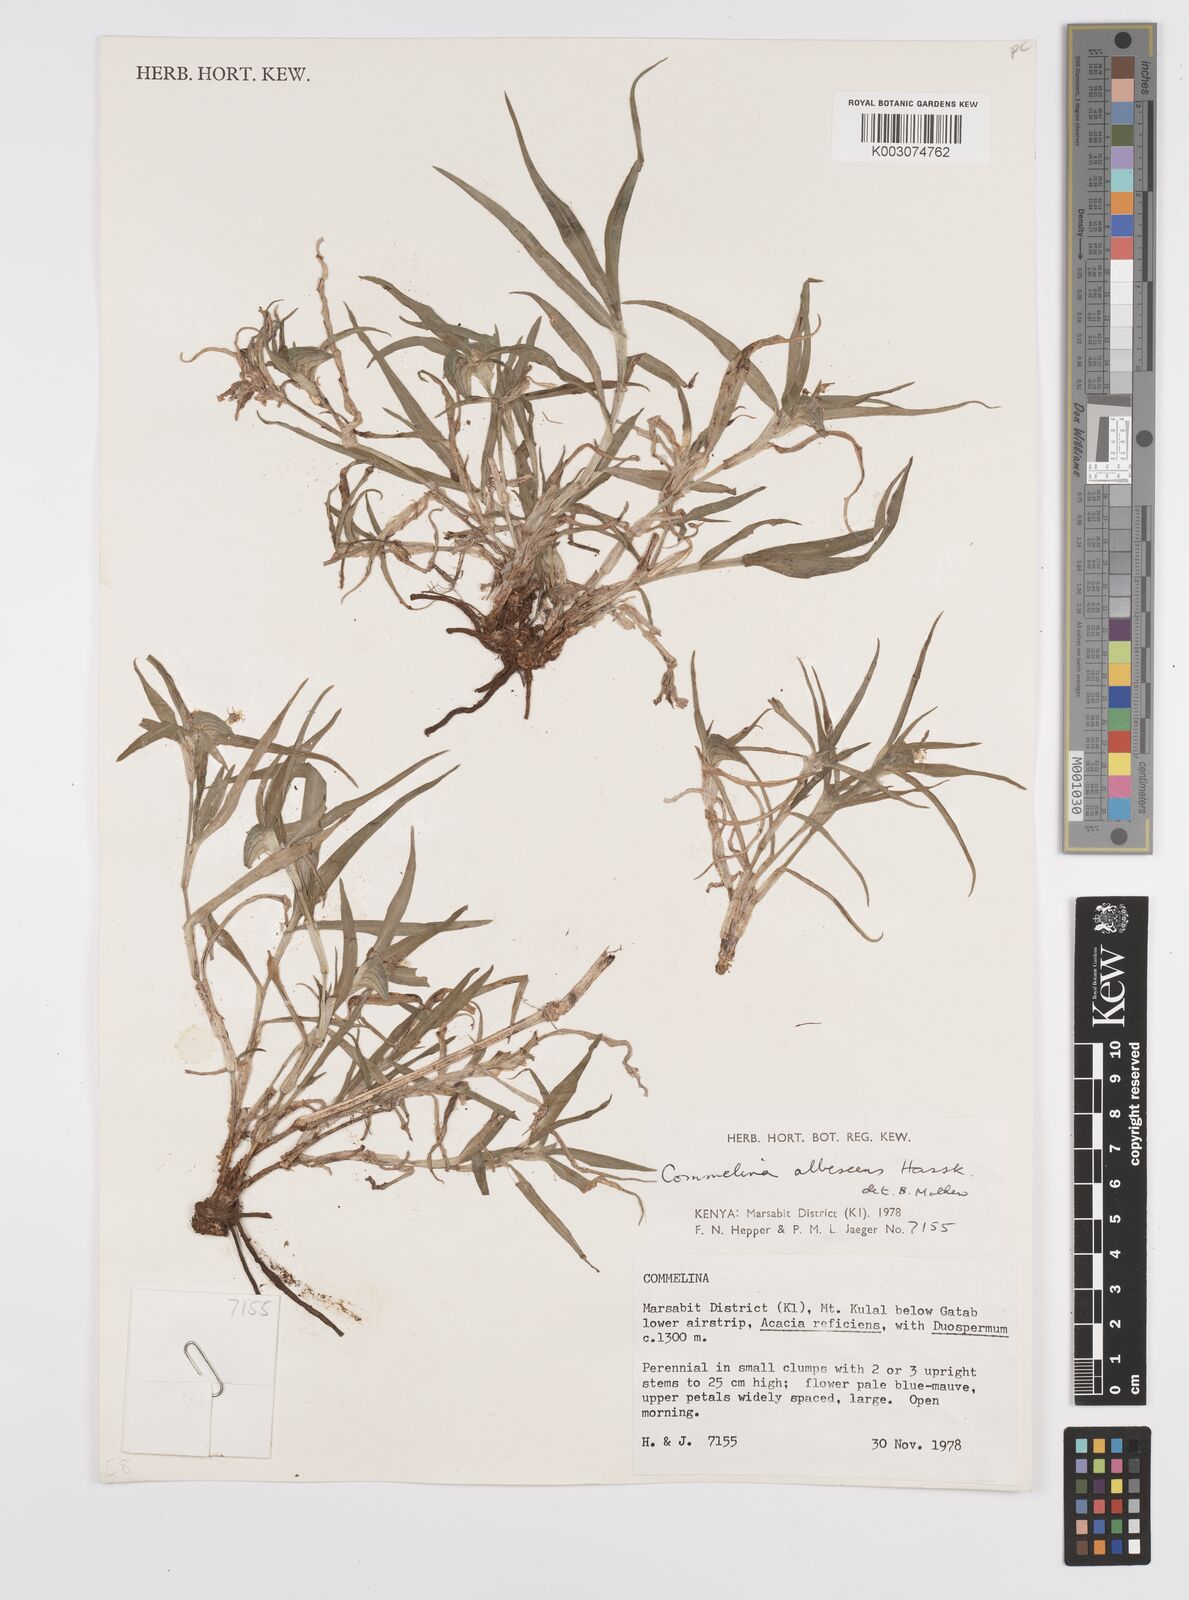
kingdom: Plantae
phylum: Tracheophyta
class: Liliopsida
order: Commelinales
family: Commelinaceae
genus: Commelina
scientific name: Commelina albescens
